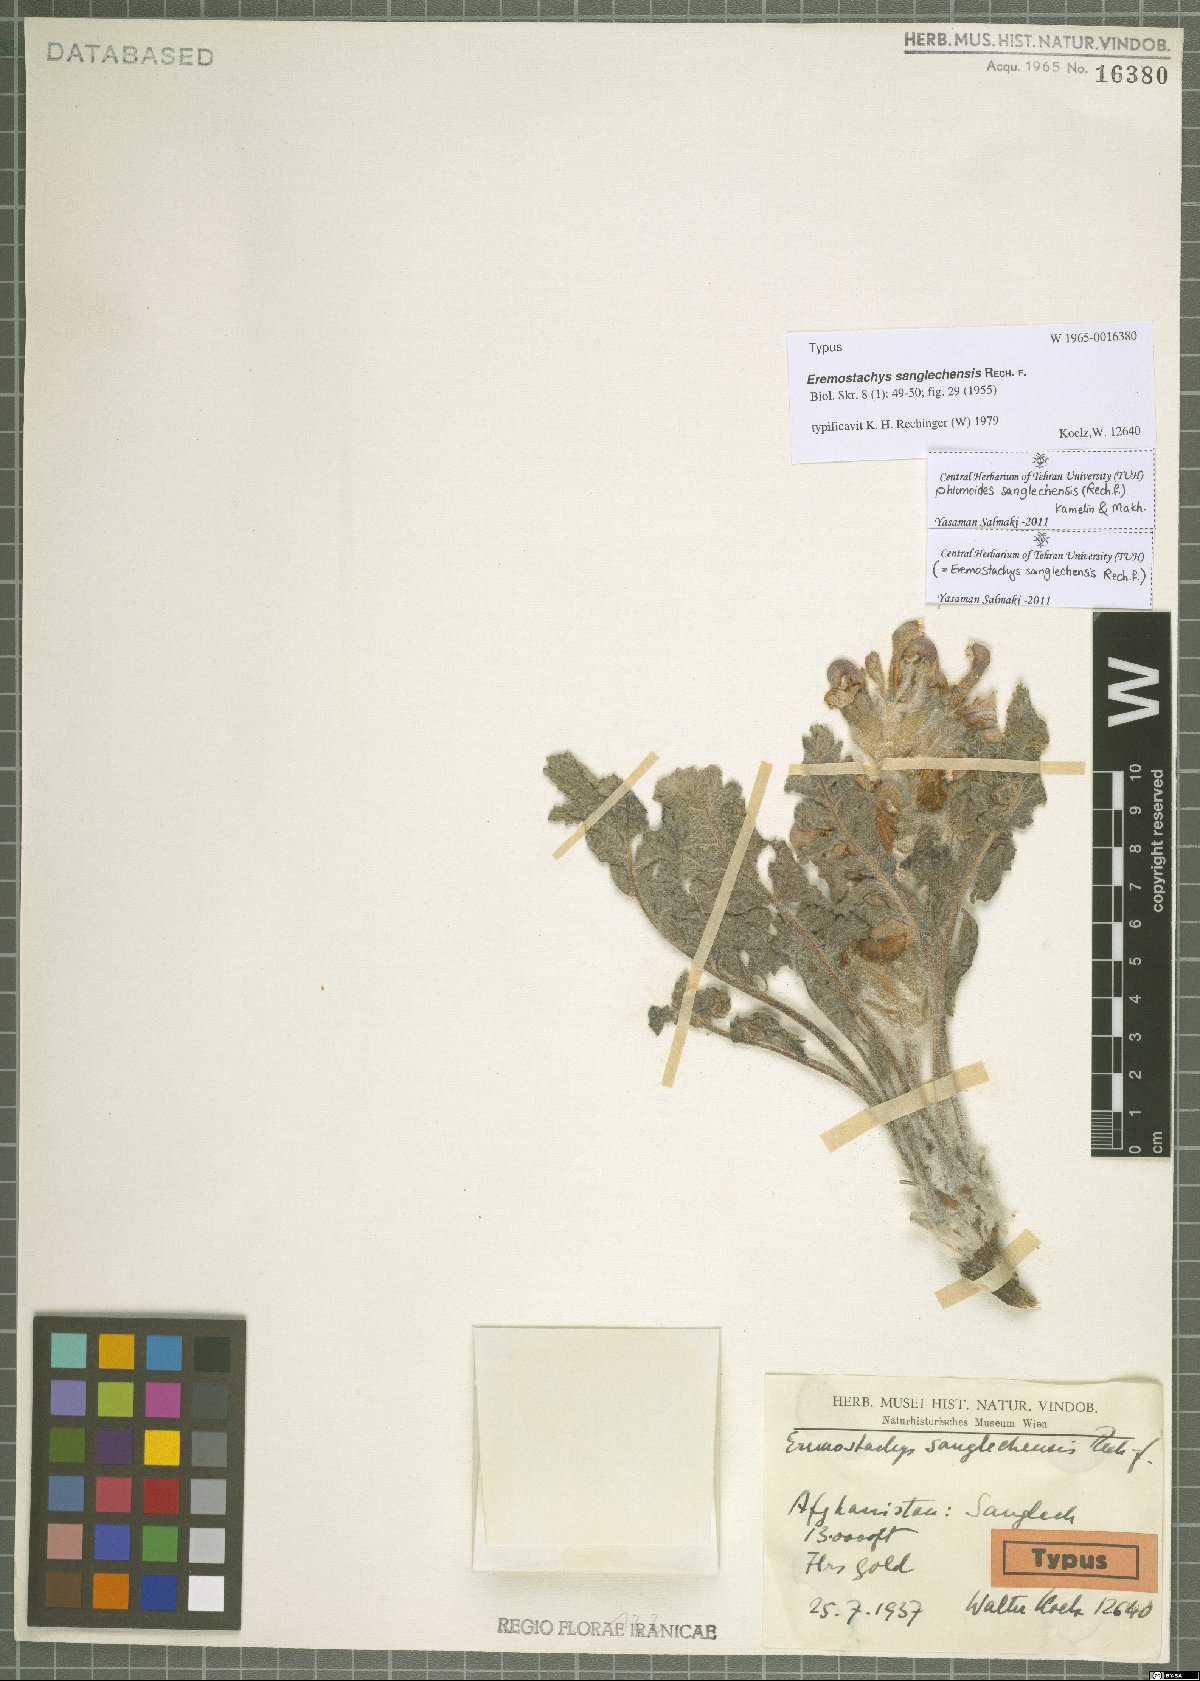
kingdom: Plantae
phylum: Tracheophyta
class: Magnoliopsida
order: Lamiales
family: Lamiaceae
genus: Phlomoides
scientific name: Phlomoides sanglechensis
